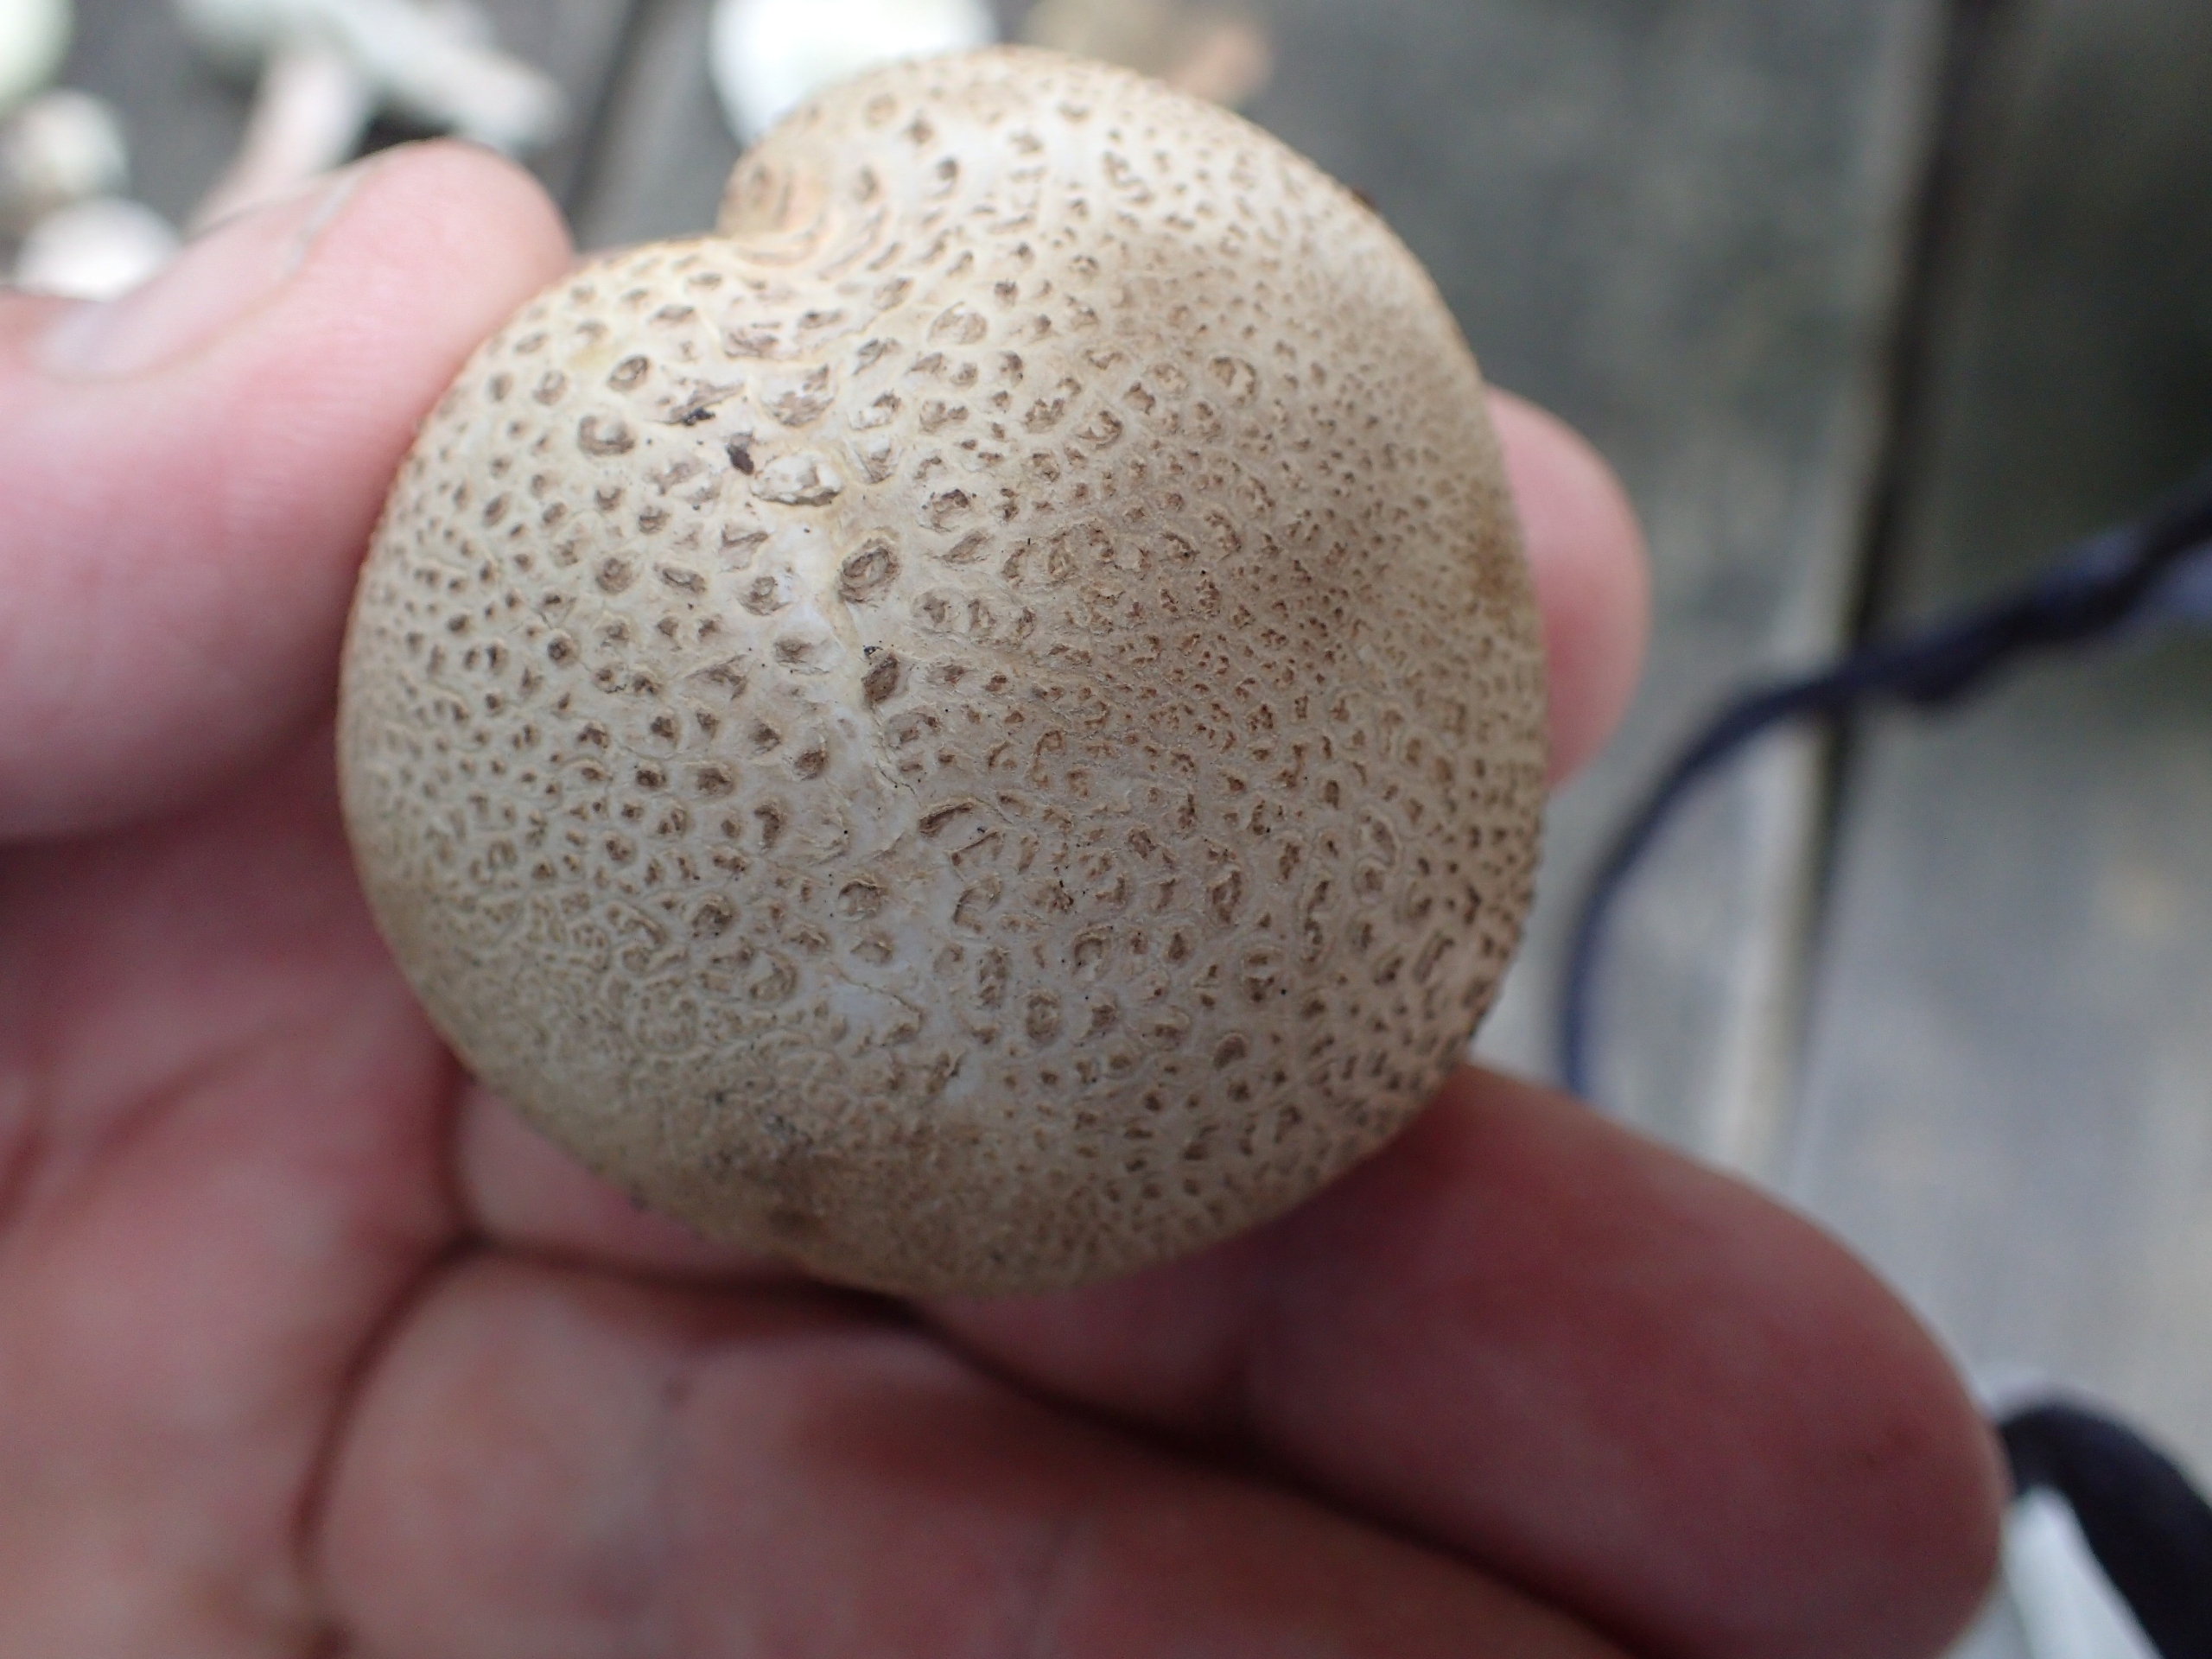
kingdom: Fungi
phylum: Basidiomycota
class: Agaricomycetes
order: Boletales
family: Sclerodermataceae
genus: Scleroderma
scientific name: Scleroderma citrinum
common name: Almindelig bruskbold
